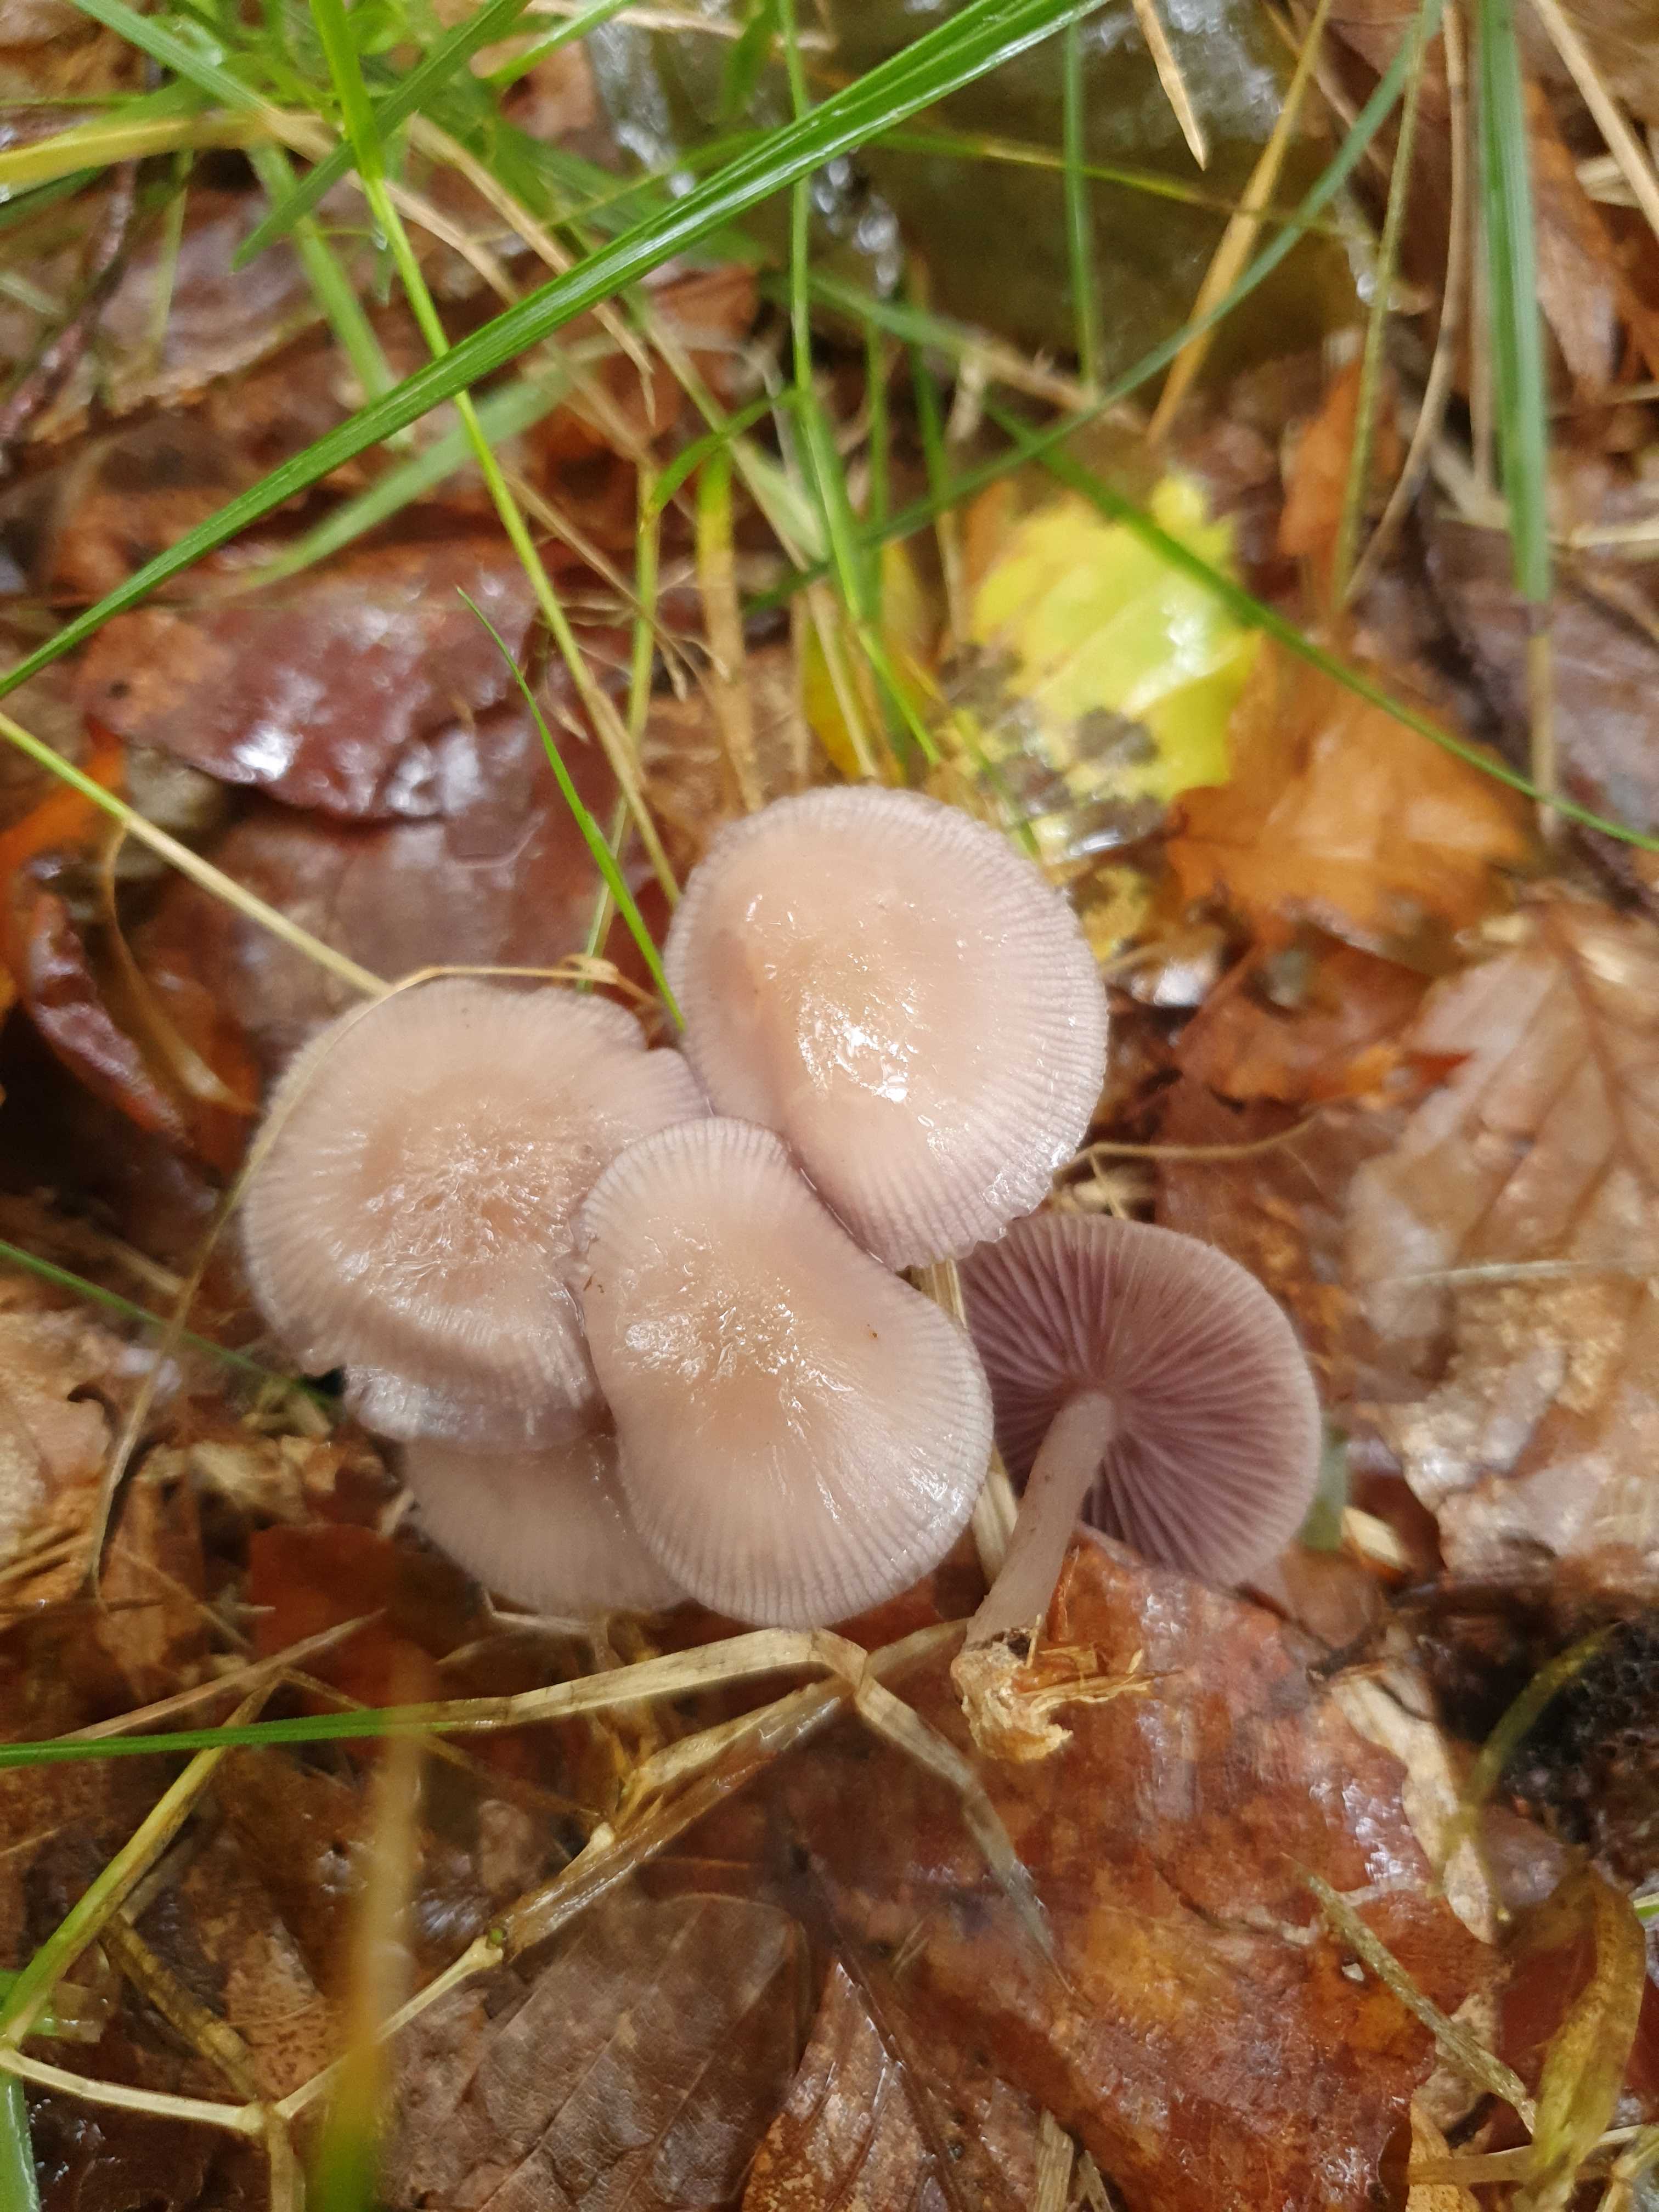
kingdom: Fungi
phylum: Basidiomycota
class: Agaricomycetes
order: Agaricales
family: Mycenaceae
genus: Mycena
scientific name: Mycena pelianthina
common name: mørkbladet huesvamp
